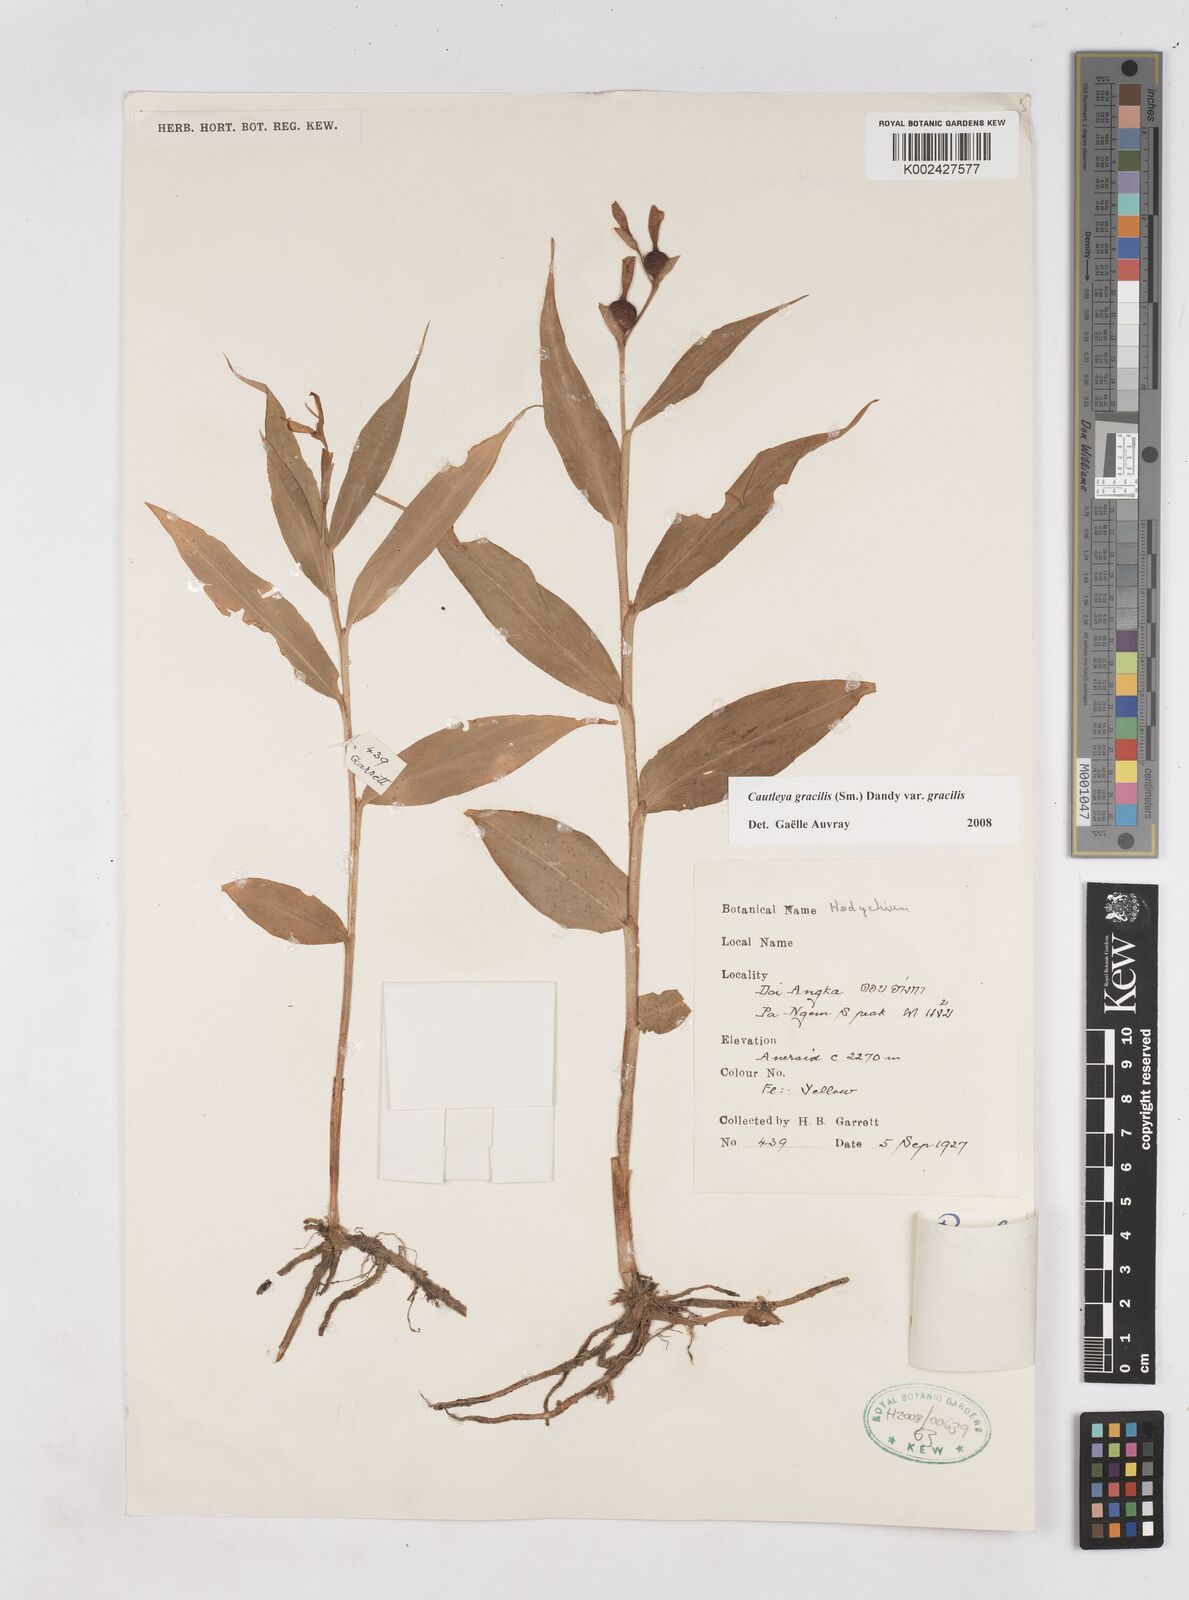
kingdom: Plantae
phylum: Tracheophyta
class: Liliopsida
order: Zingiberales
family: Zingiberaceae
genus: Cautleya
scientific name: Cautleya gracilis
